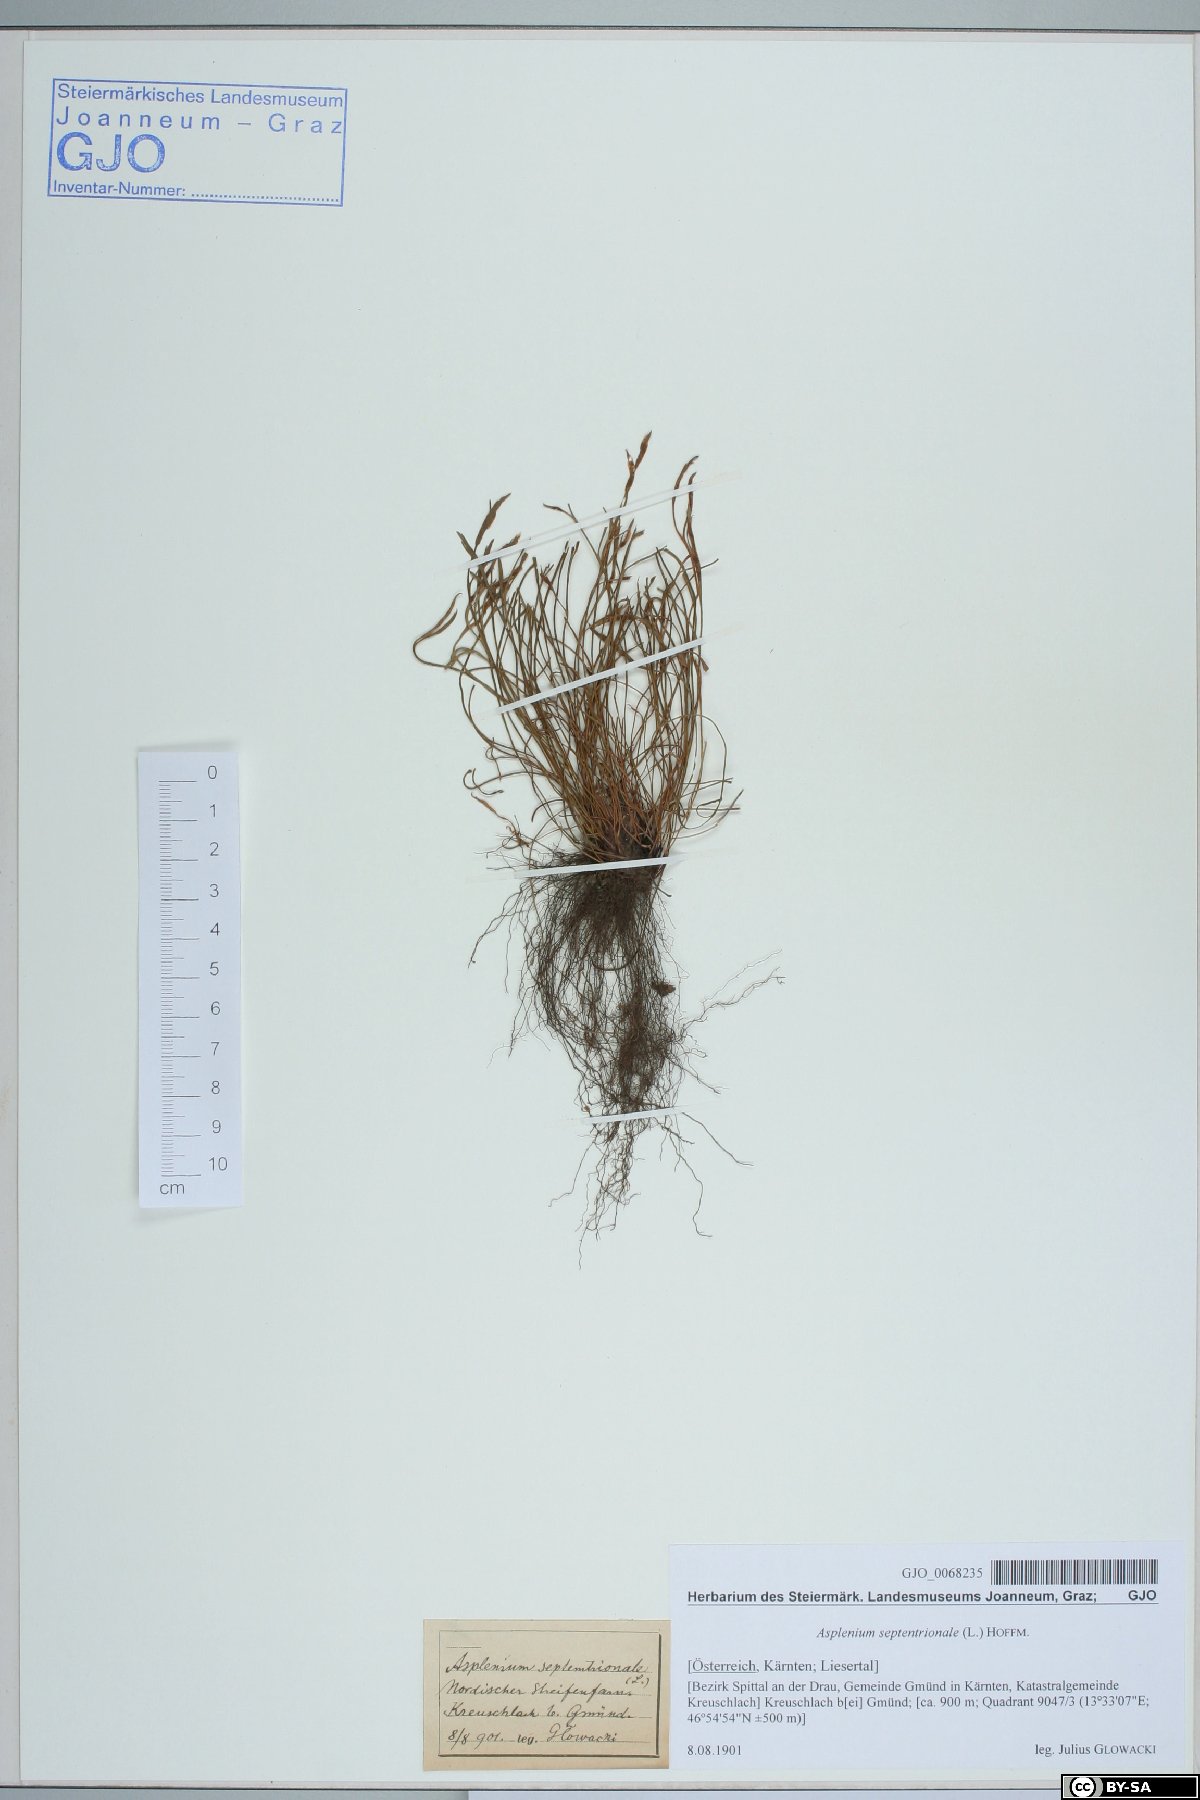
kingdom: Plantae
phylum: Tracheophyta
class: Polypodiopsida
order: Polypodiales
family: Aspleniaceae
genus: Asplenium
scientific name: Asplenium septentrionale
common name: Forked spleenwort
